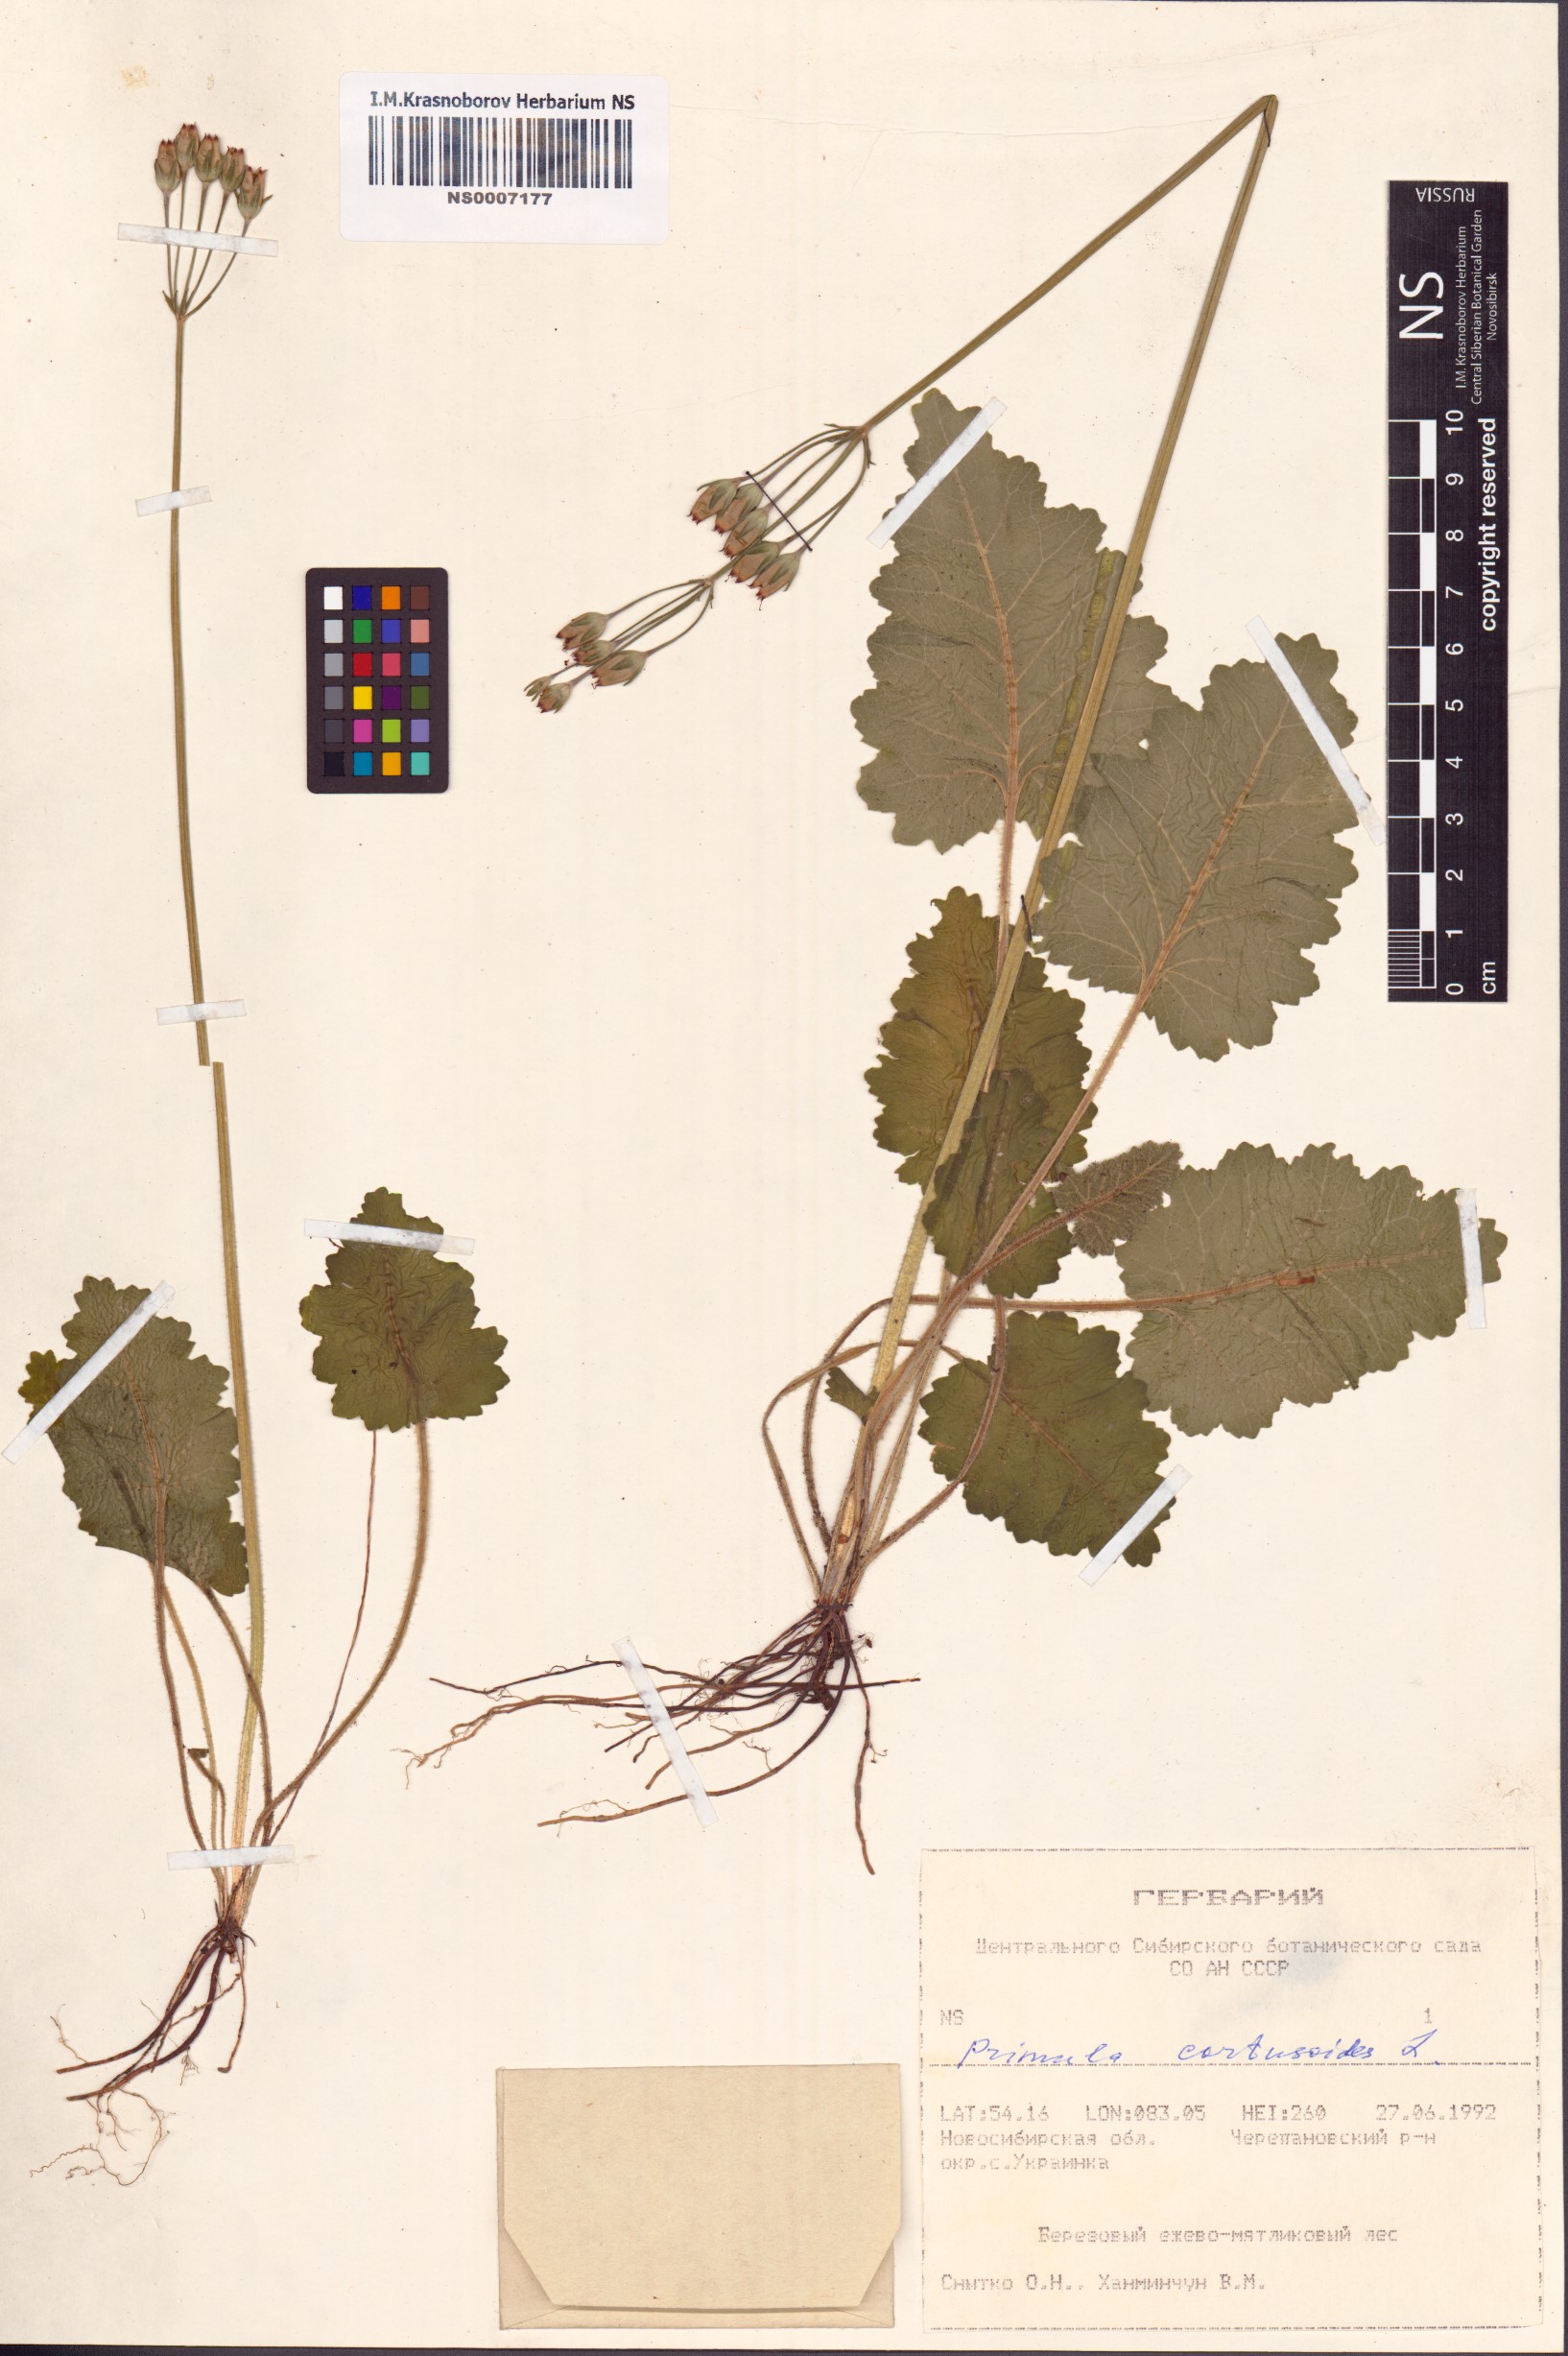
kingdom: Plantae
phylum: Tracheophyta
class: Magnoliopsida
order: Ericales
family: Primulaceae
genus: Primula
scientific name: Primula cortusoides
